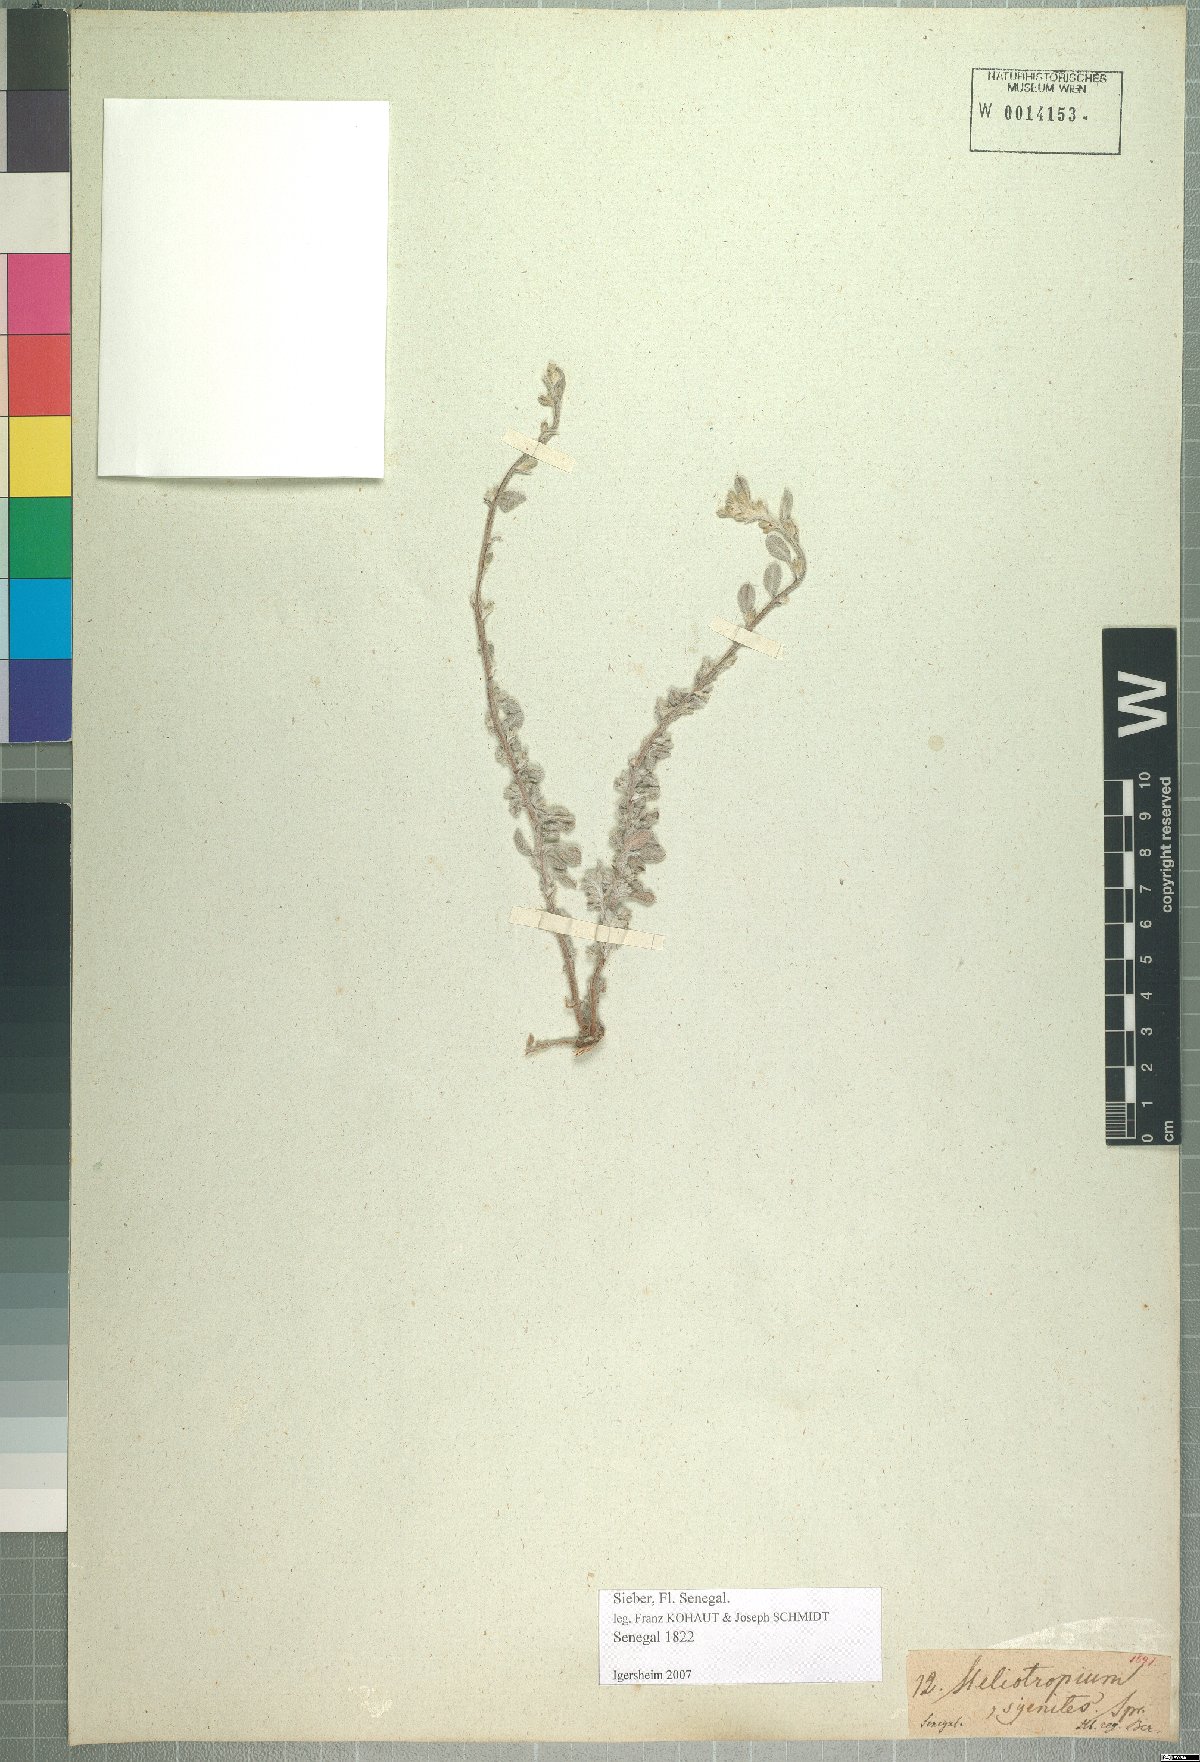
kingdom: Plantae
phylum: Tracheophyta
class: Magnoliopsida
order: Boraginales
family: Heliotropiaceae
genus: Euploca
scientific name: Euploca ovalifolia
